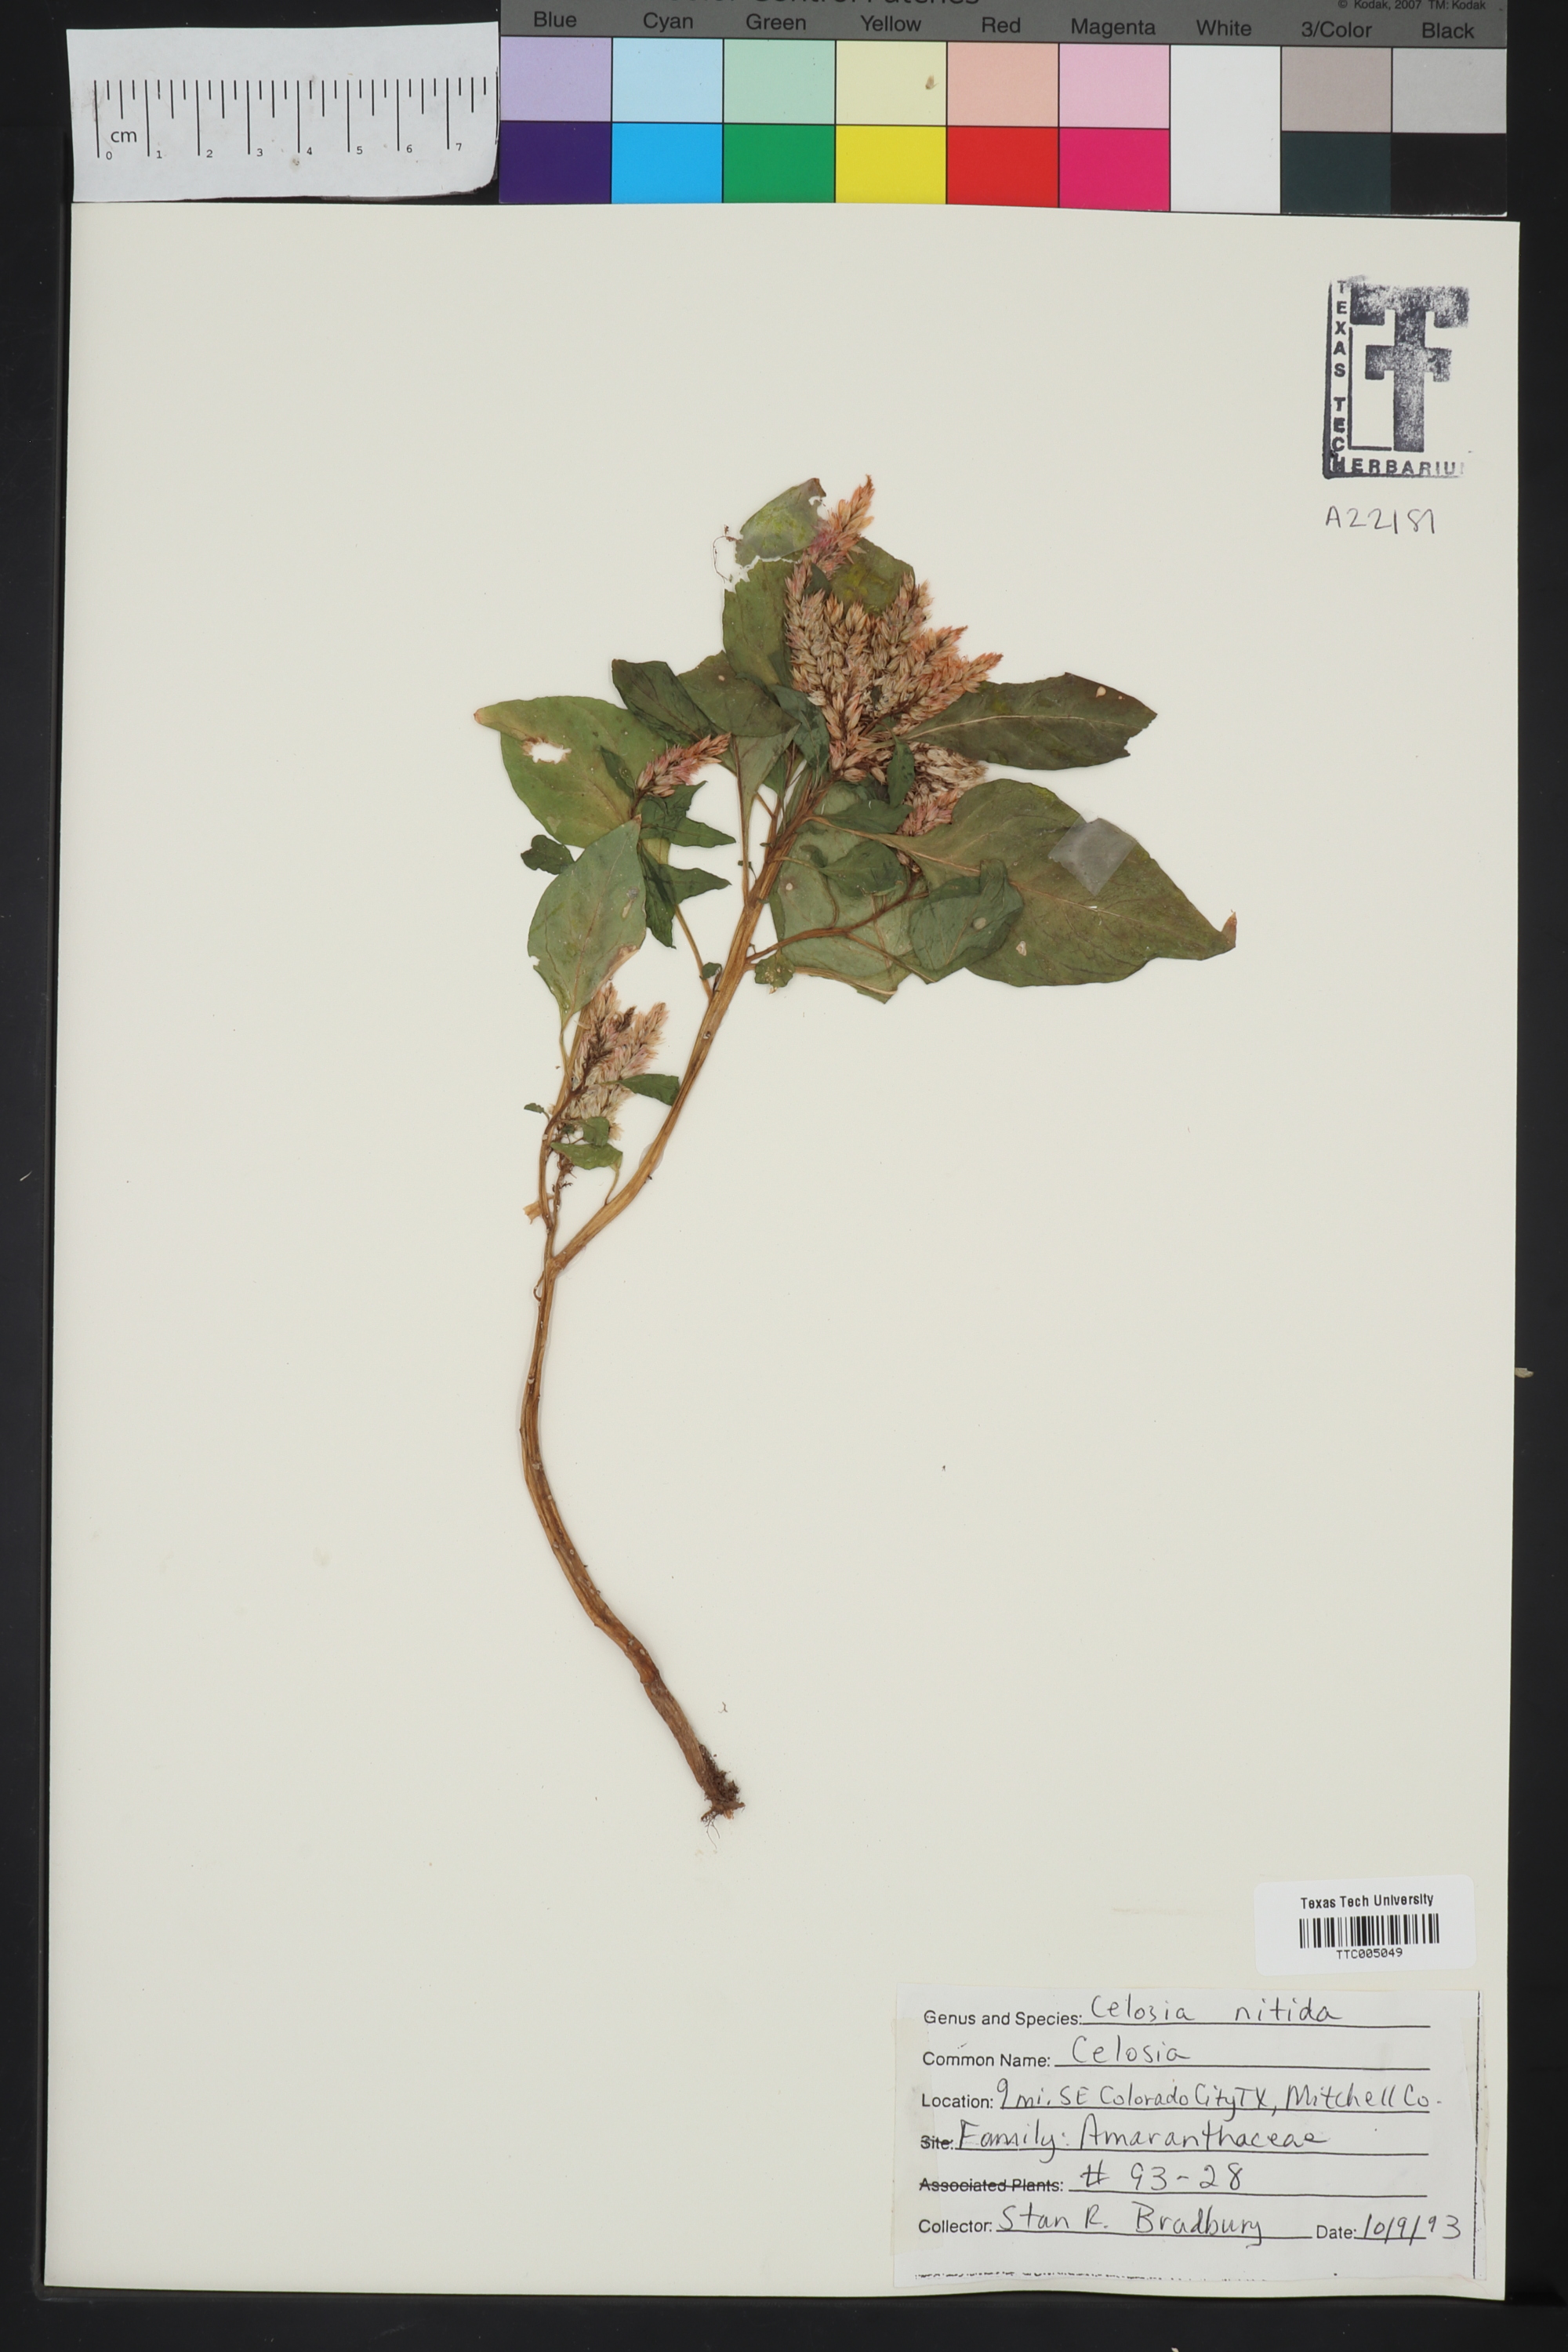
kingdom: Plantae
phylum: Tracheophyta
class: Magnoliopsida
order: Caryophyllales
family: Amaranthaceae
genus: Celosia
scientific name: Celosia nitida
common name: West indian cock's comb
